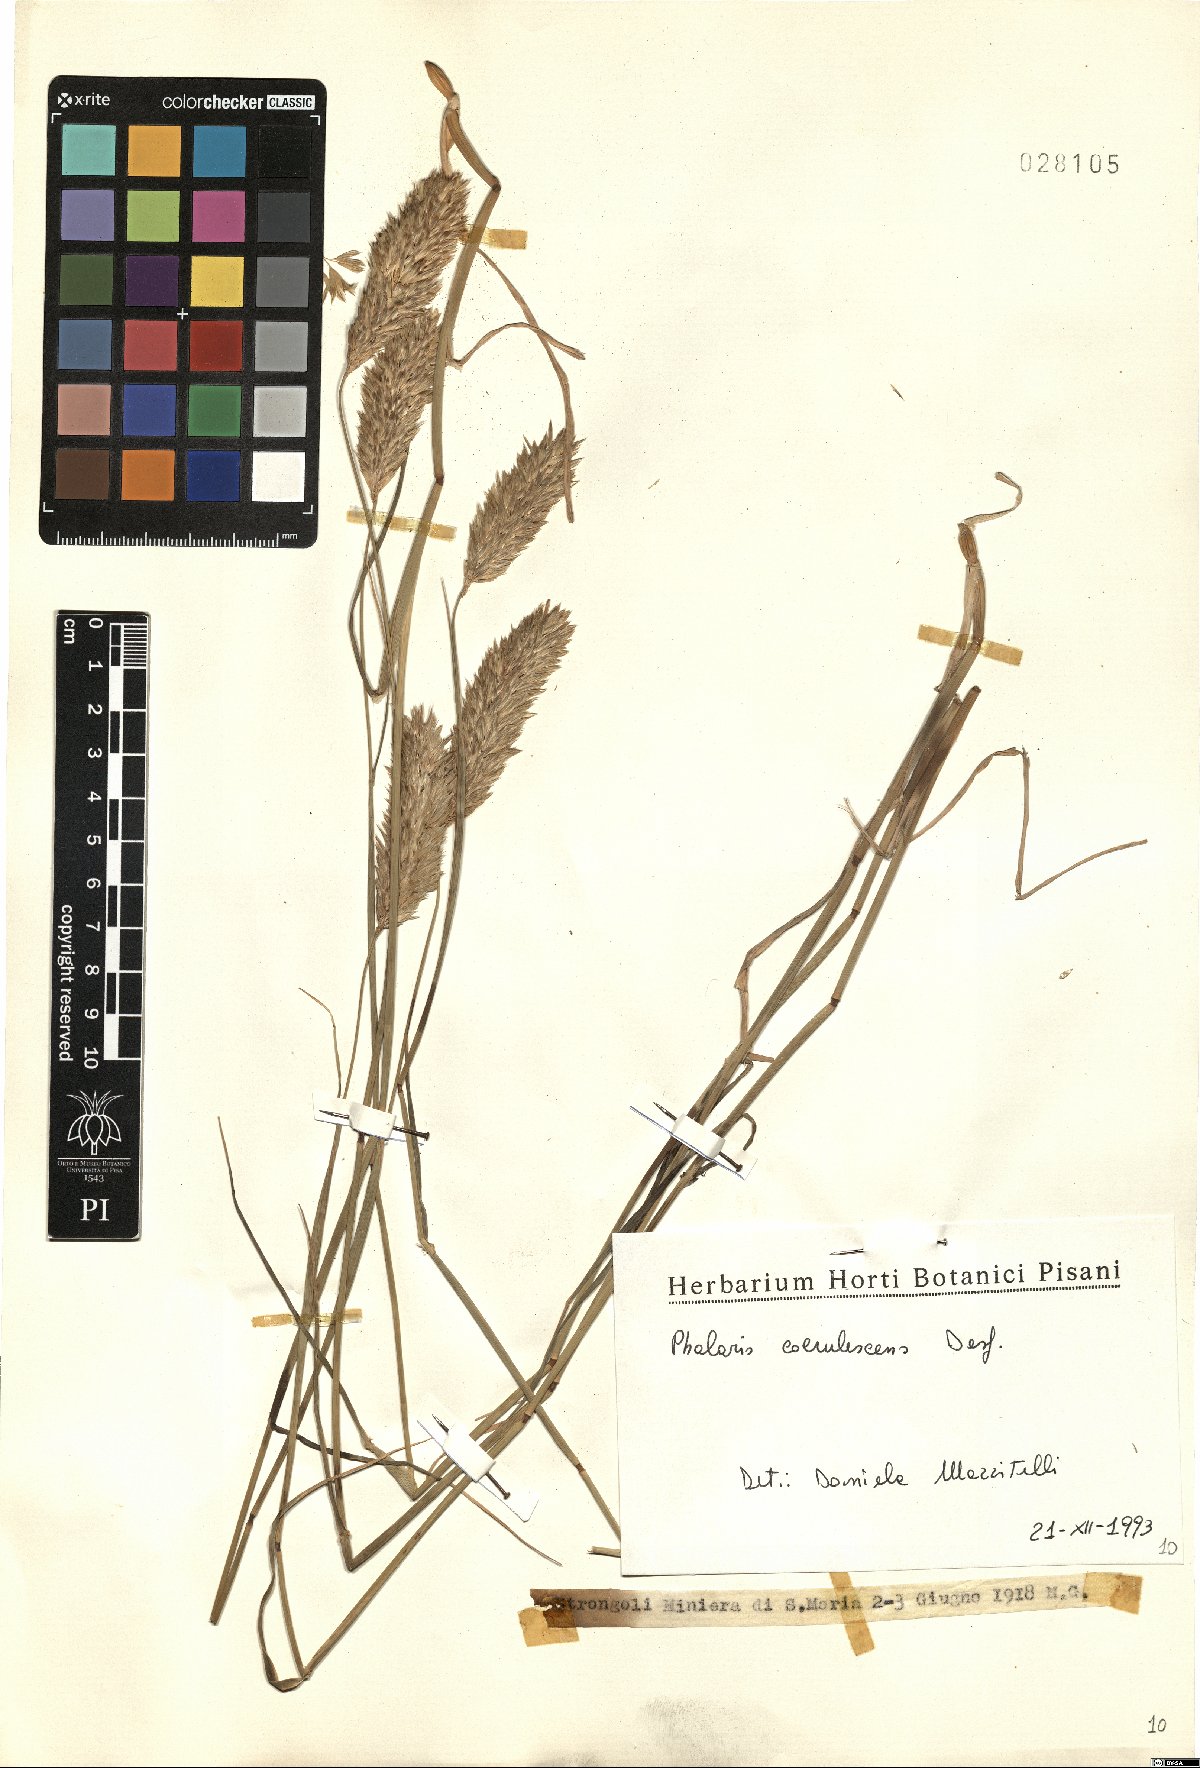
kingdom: Plantae
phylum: Tracheophyta
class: Liliopsida
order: Poales
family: Poaceae
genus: Phalaris
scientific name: Phalaris coerulescens
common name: Sunolgrass
